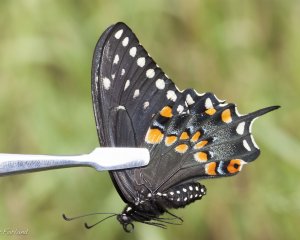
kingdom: Animalia
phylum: Arthropoda
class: Insecta
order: Lepidoptera
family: Papilionidae
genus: Papilio
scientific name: Papilio polyxenes
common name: Black Swallowtail
